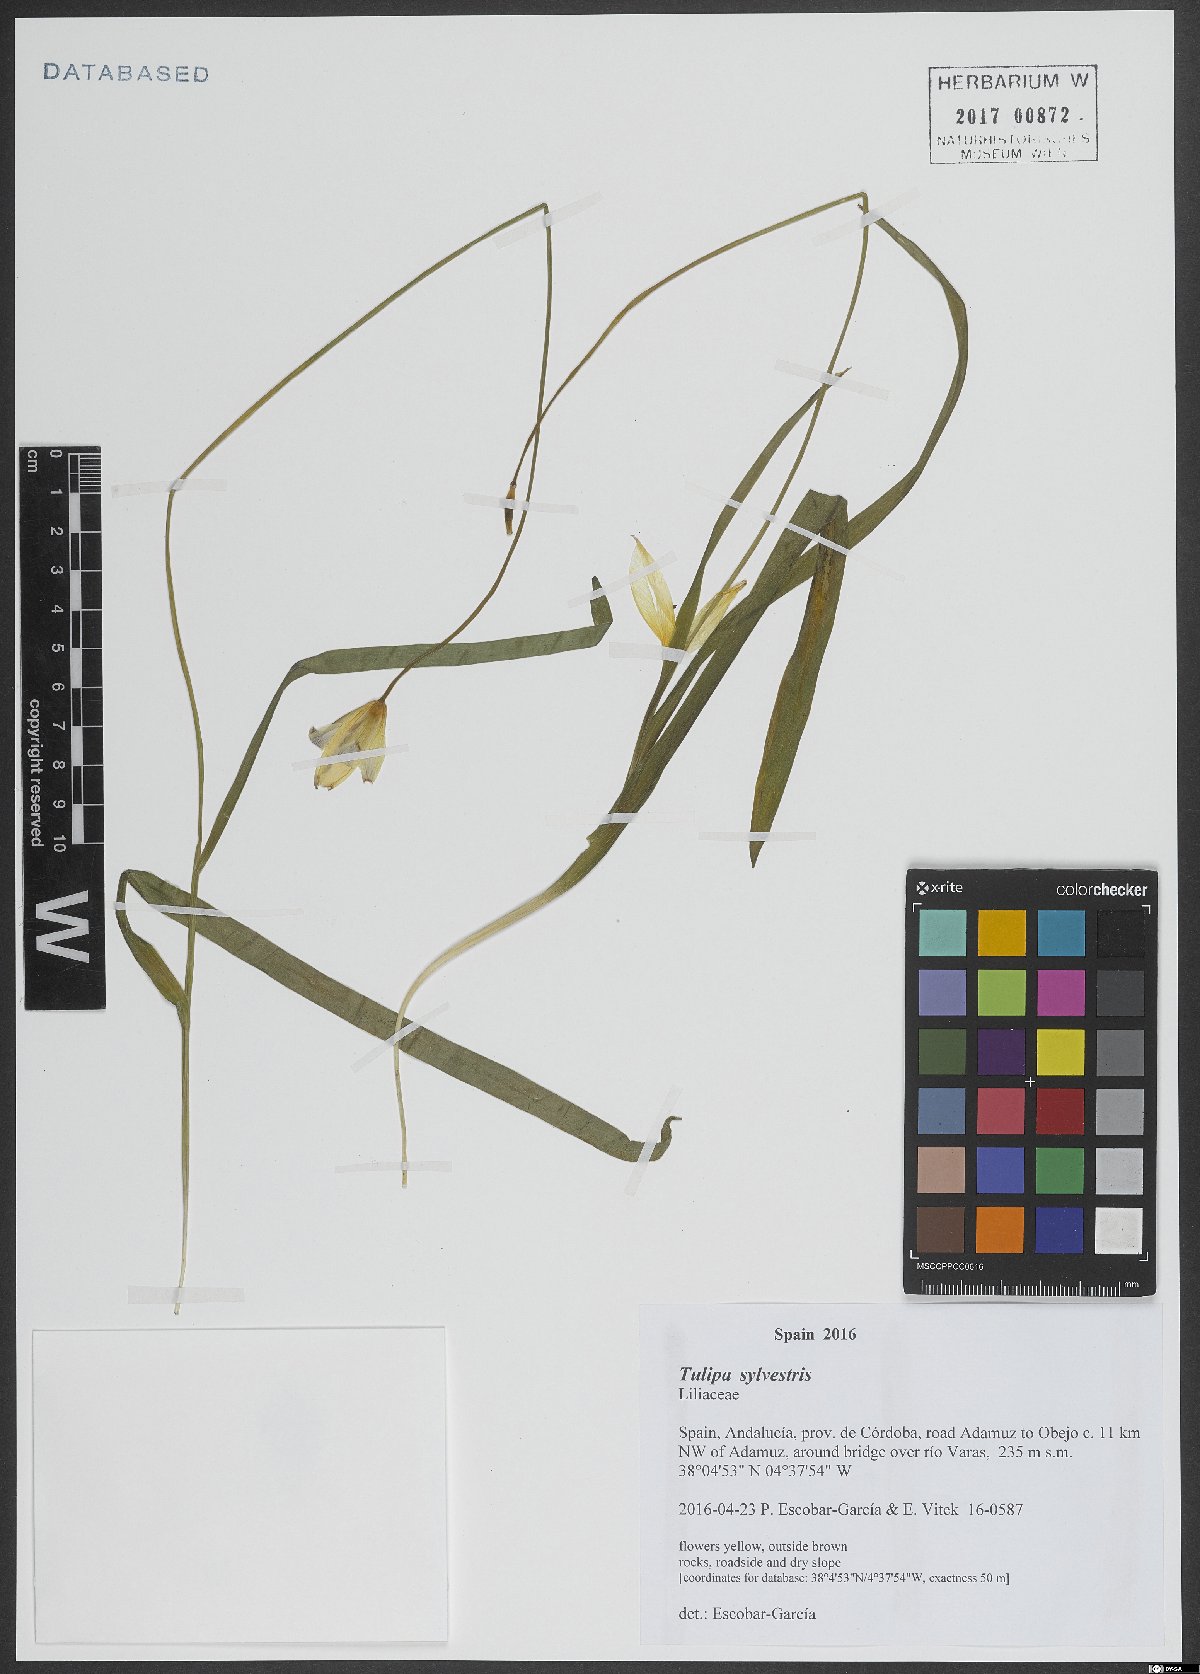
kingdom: Plantae
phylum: Tracheophyta
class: Liliopsida
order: Liliales
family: Liliaceae
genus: Tulipa
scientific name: Tulipa sylvestris
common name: Wild tulip
